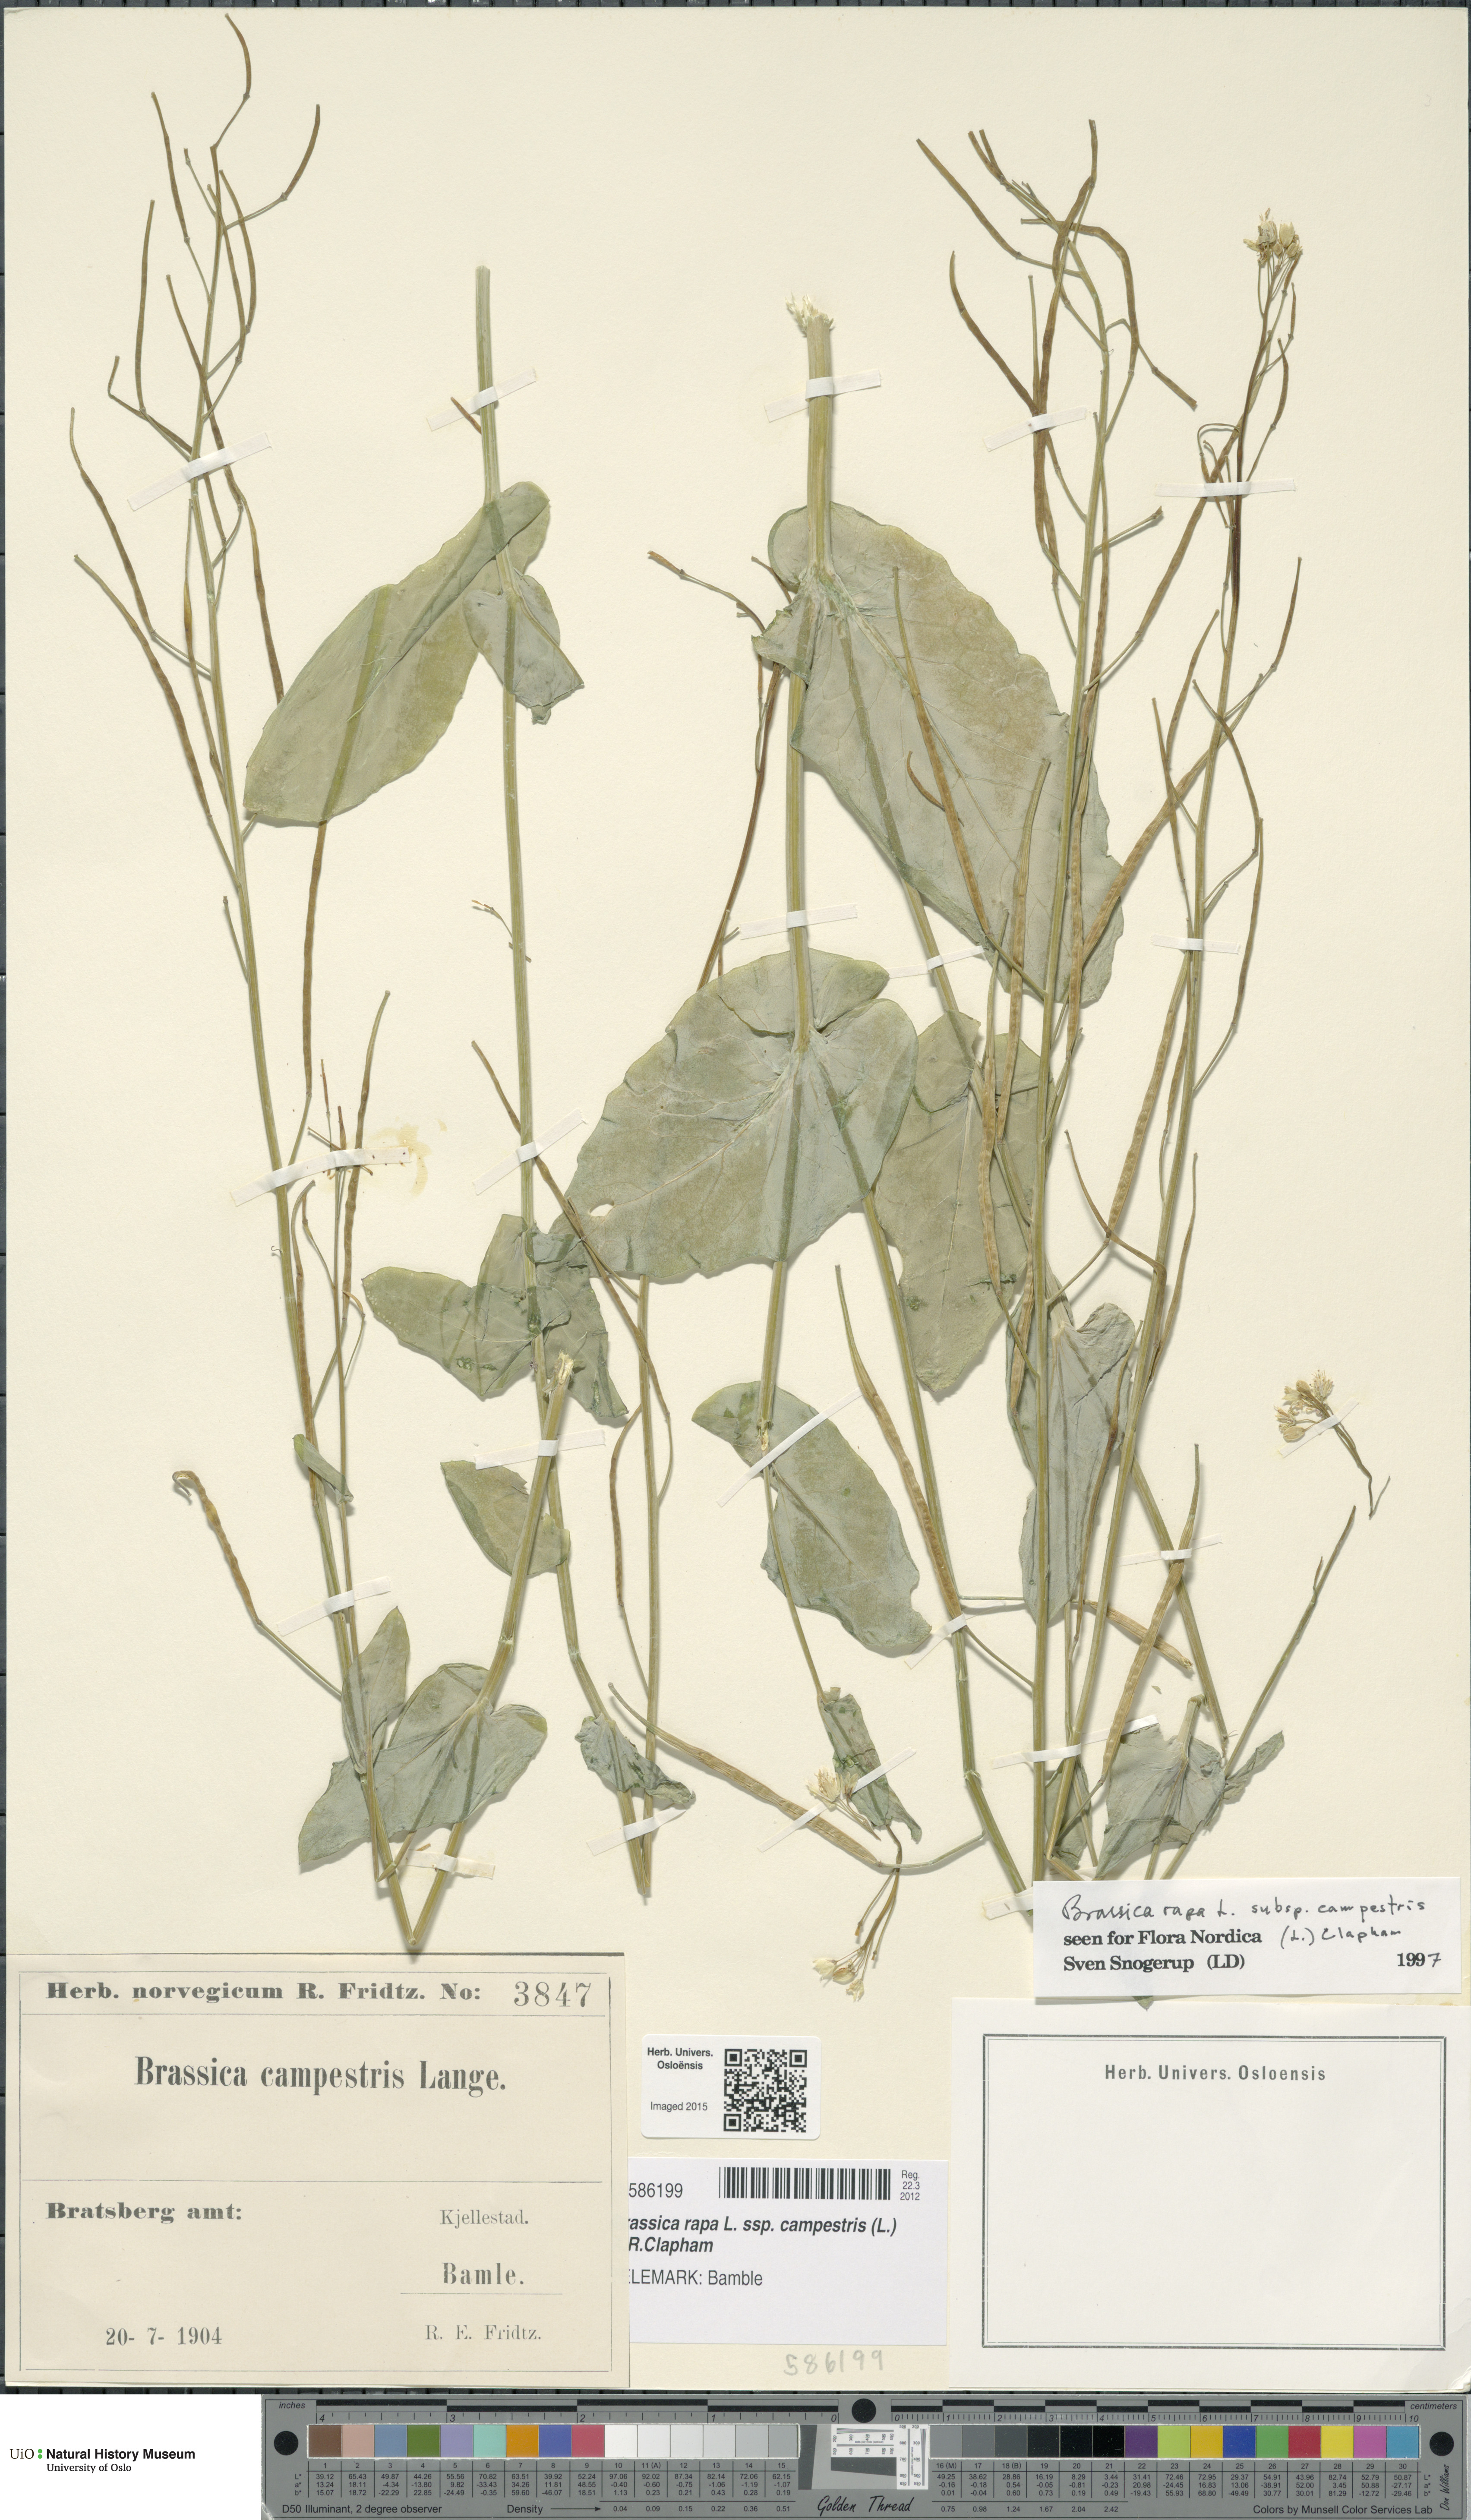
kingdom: Plantae
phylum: Tracheophyta
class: Magnoliopsida
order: Brassicales
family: Brassicaceae
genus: Brassica
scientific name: Brassica rapa
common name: Field mustard
